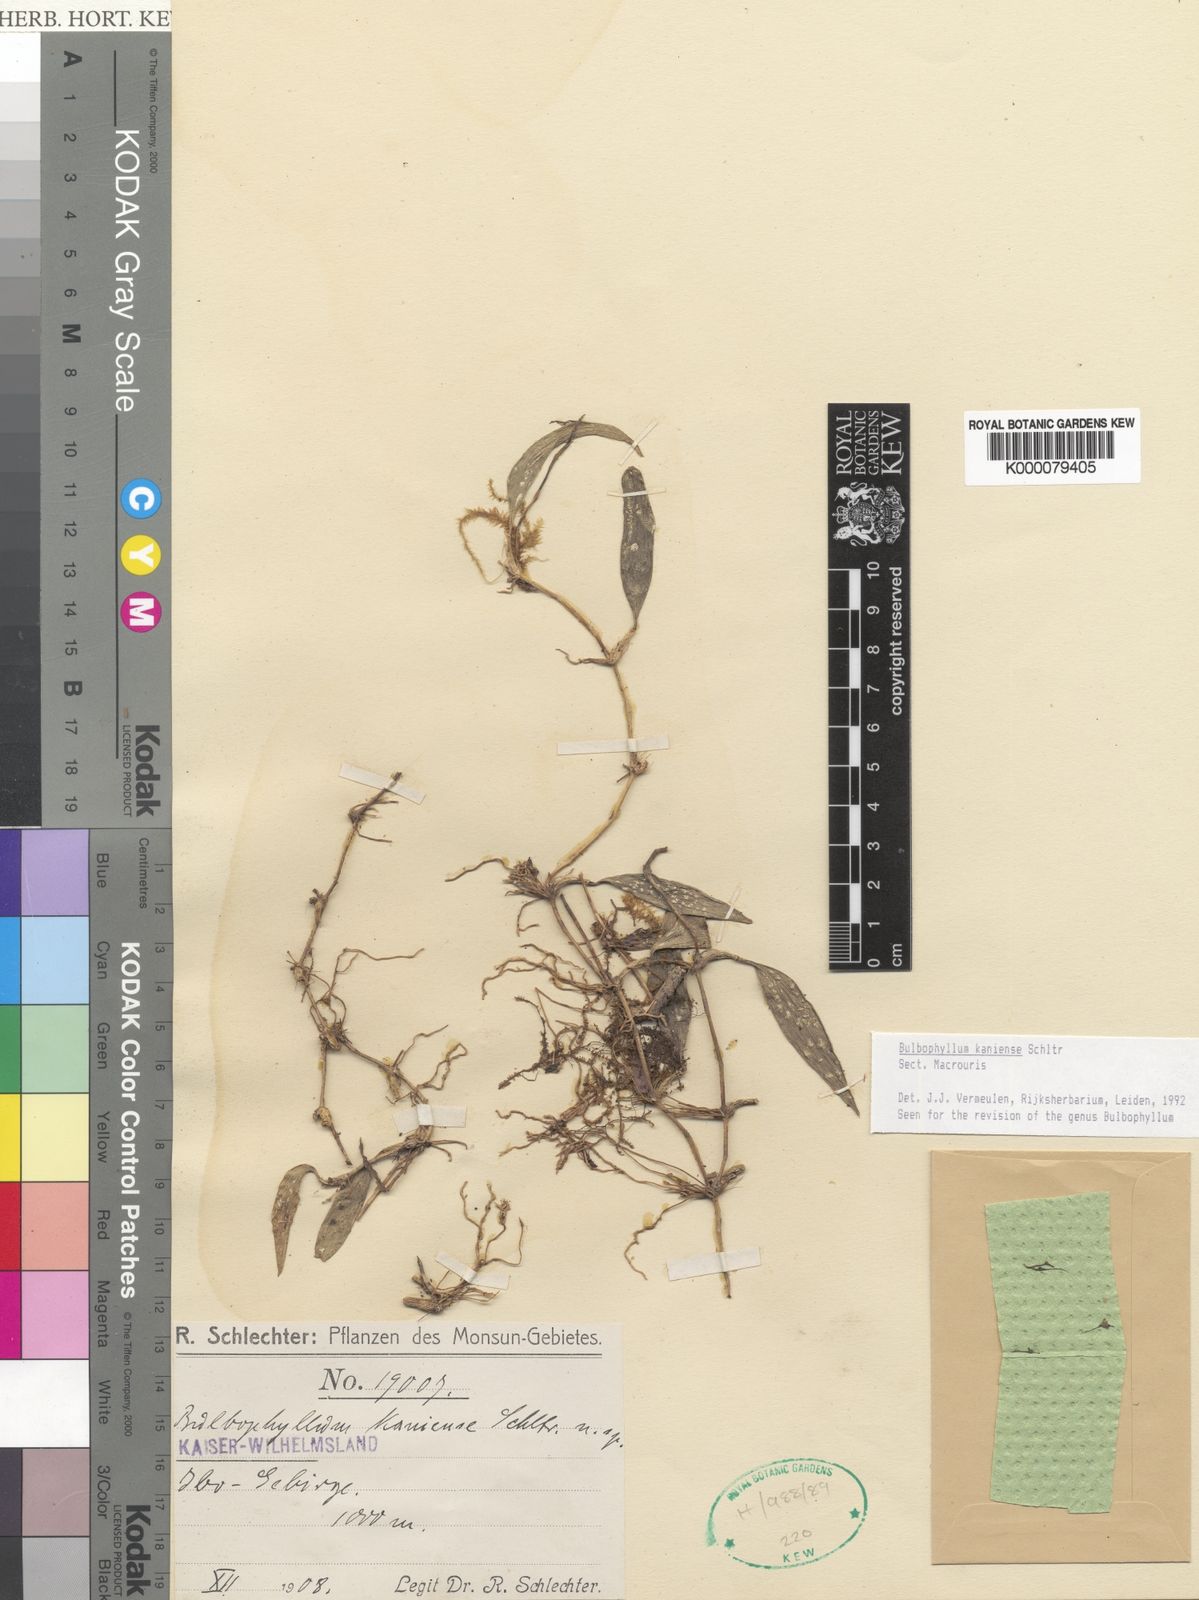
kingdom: Plantae
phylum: Tracheophyta
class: Liliopsida
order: Asparagales
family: Orchidaceae
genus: Bulbophyllum
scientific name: Bulbophyllum
